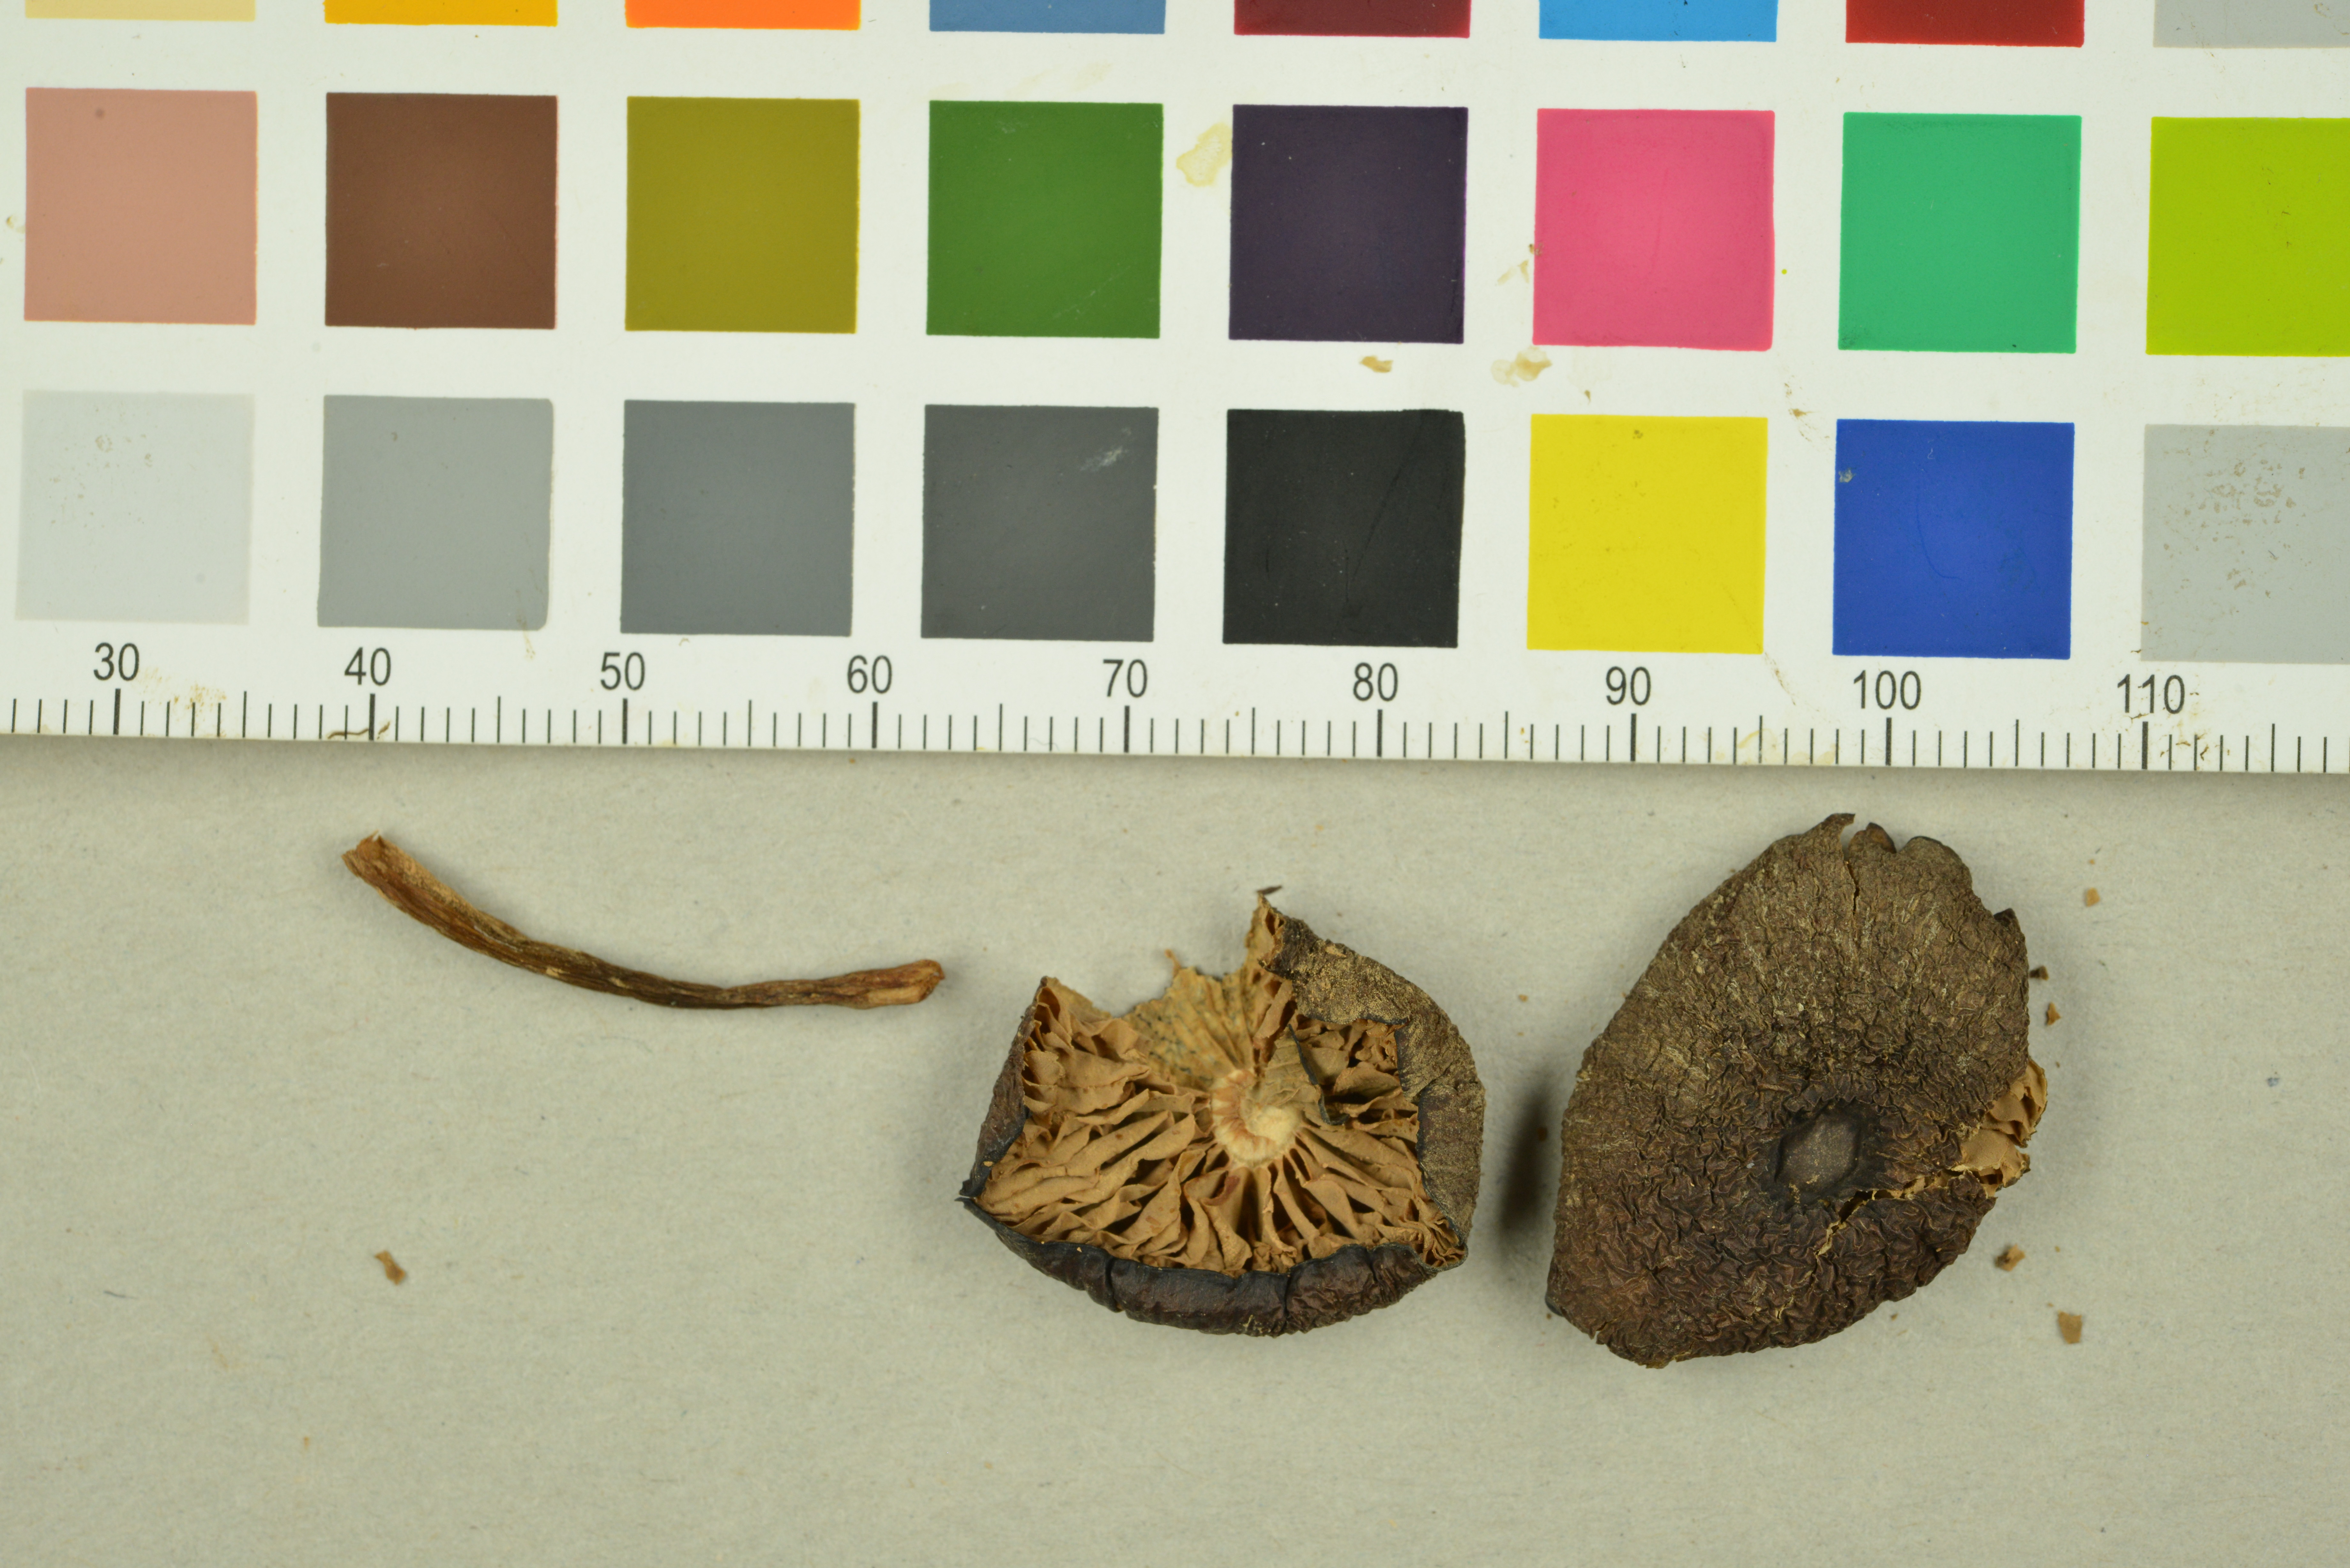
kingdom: Fungi
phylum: Basidiomycota
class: Agaricomycetes
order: Agaricales
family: Entolomataceae
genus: Entoloma
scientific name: Entoloma turci
